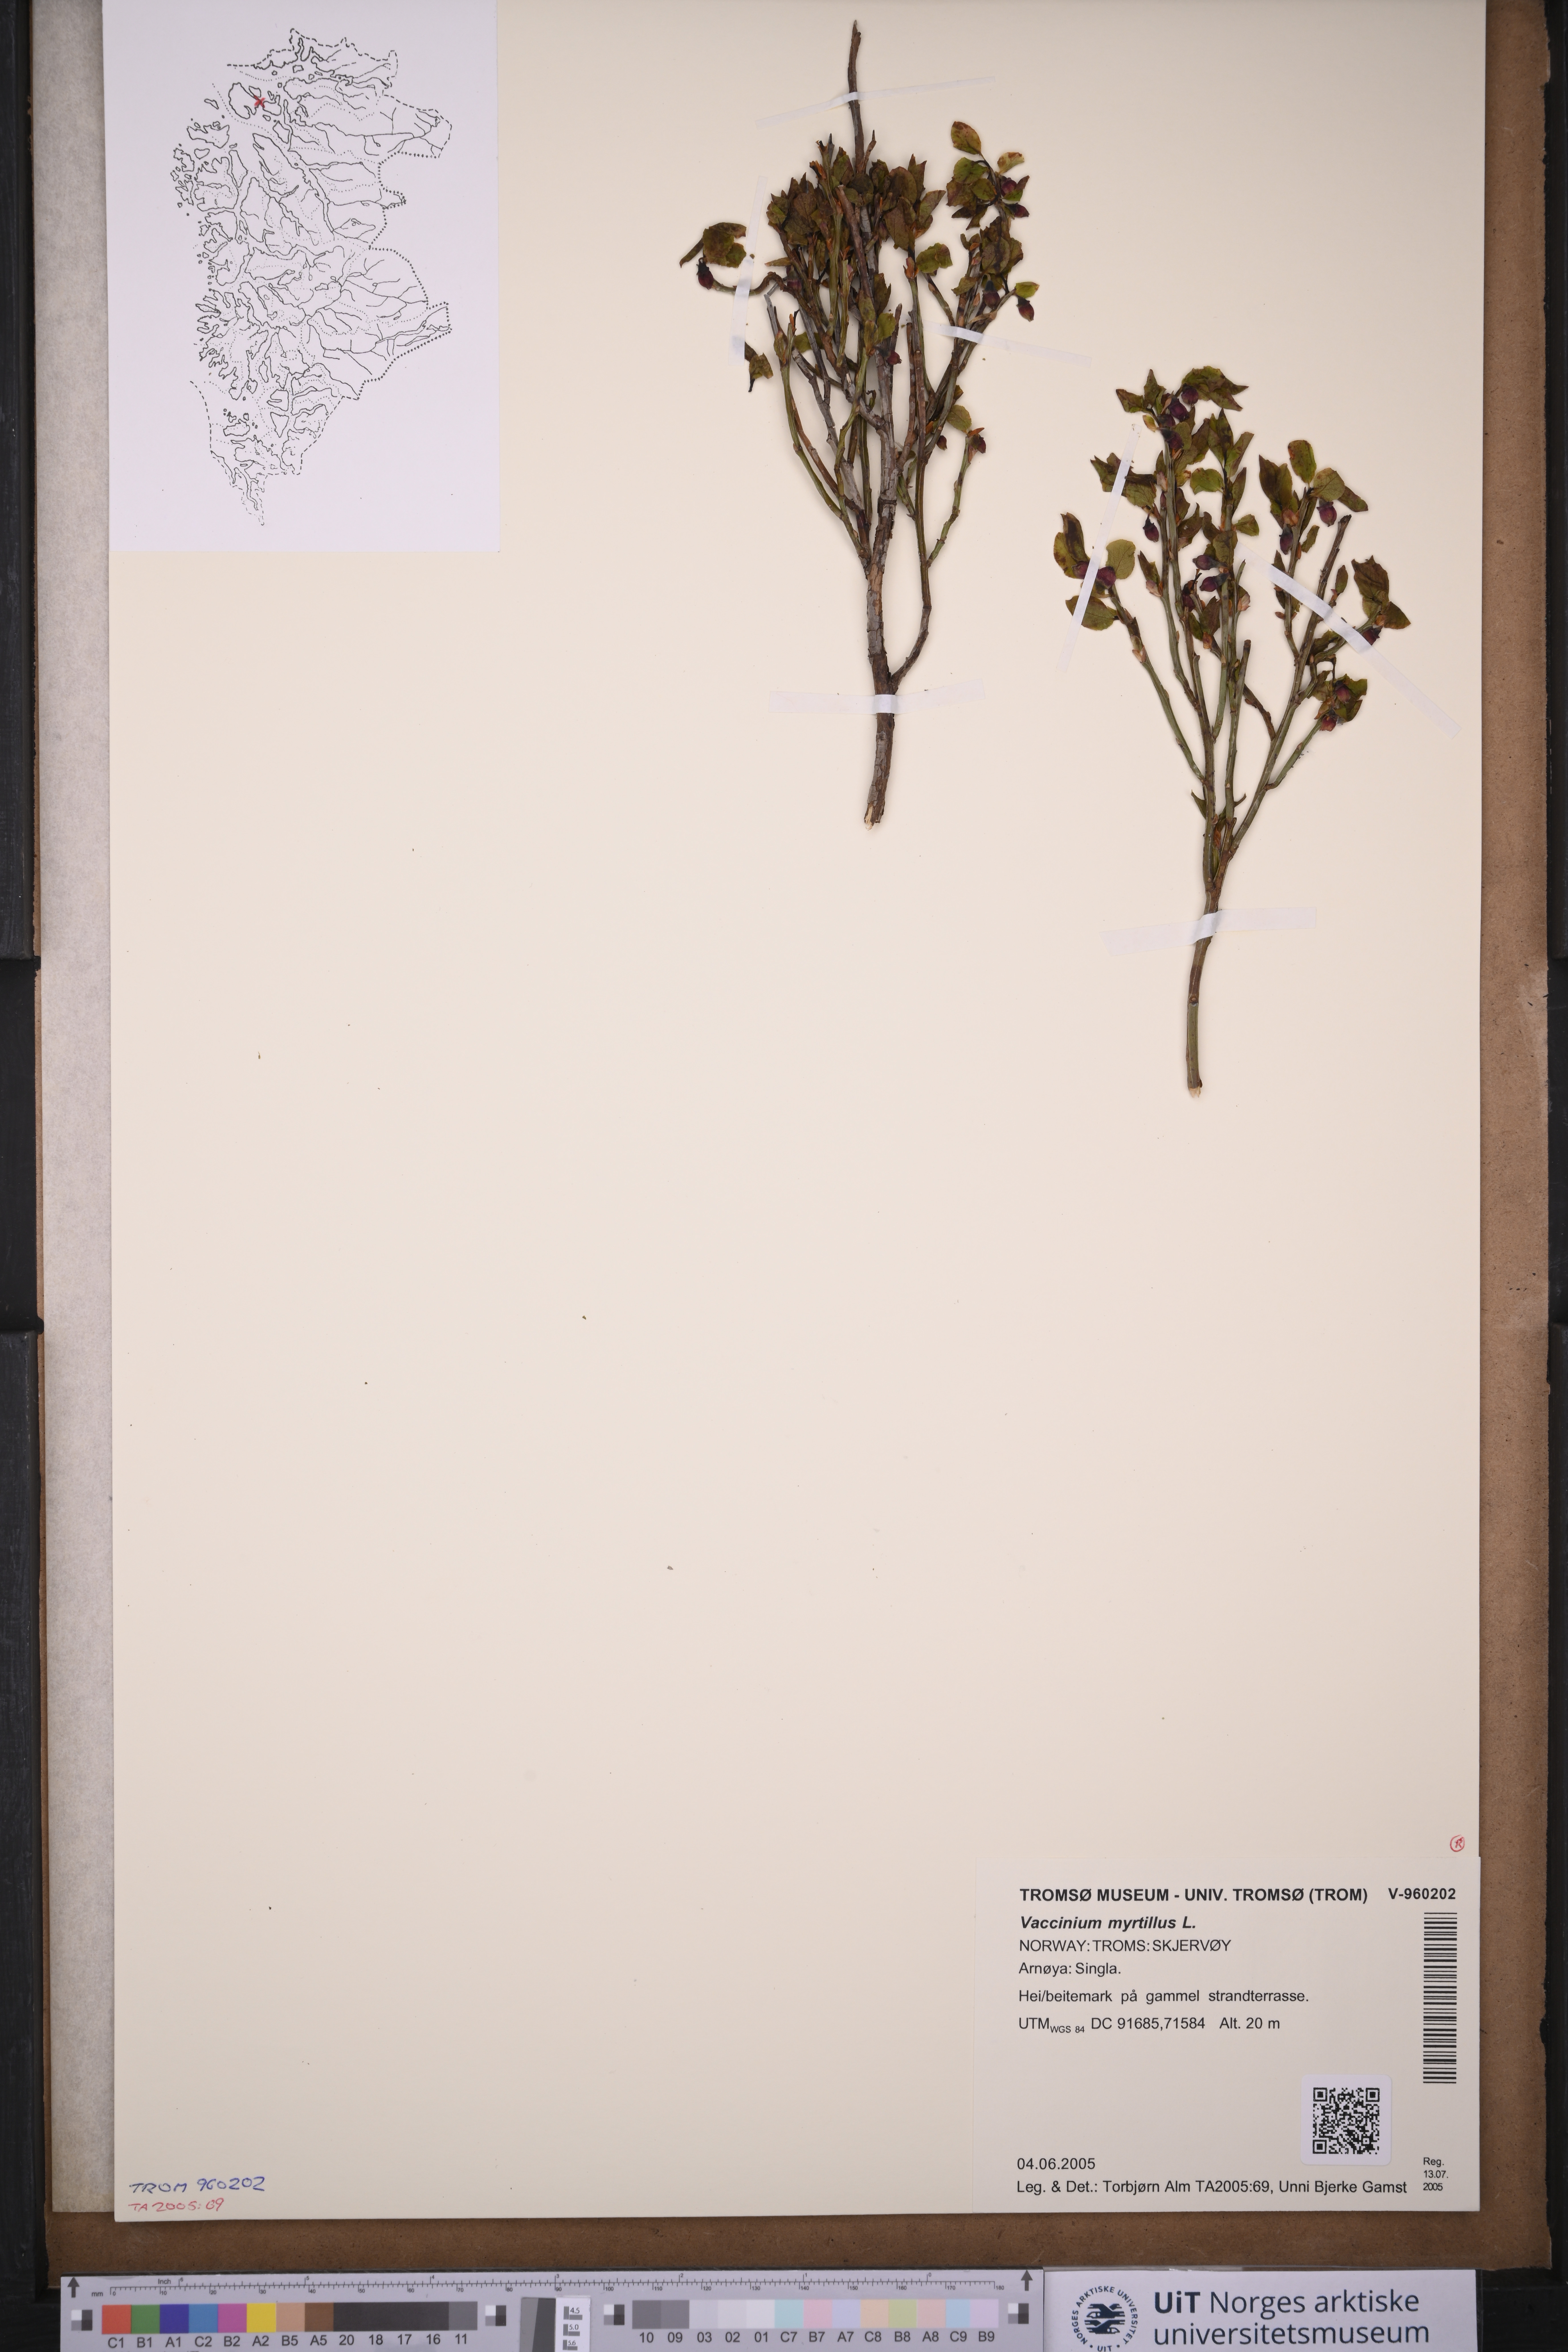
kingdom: Plantae
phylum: Tracheophyta
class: Magnoliopsida
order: Ericales
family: Ericaceae
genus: Vaccinium
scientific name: Vaccinium myrtillus
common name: Bilberry
